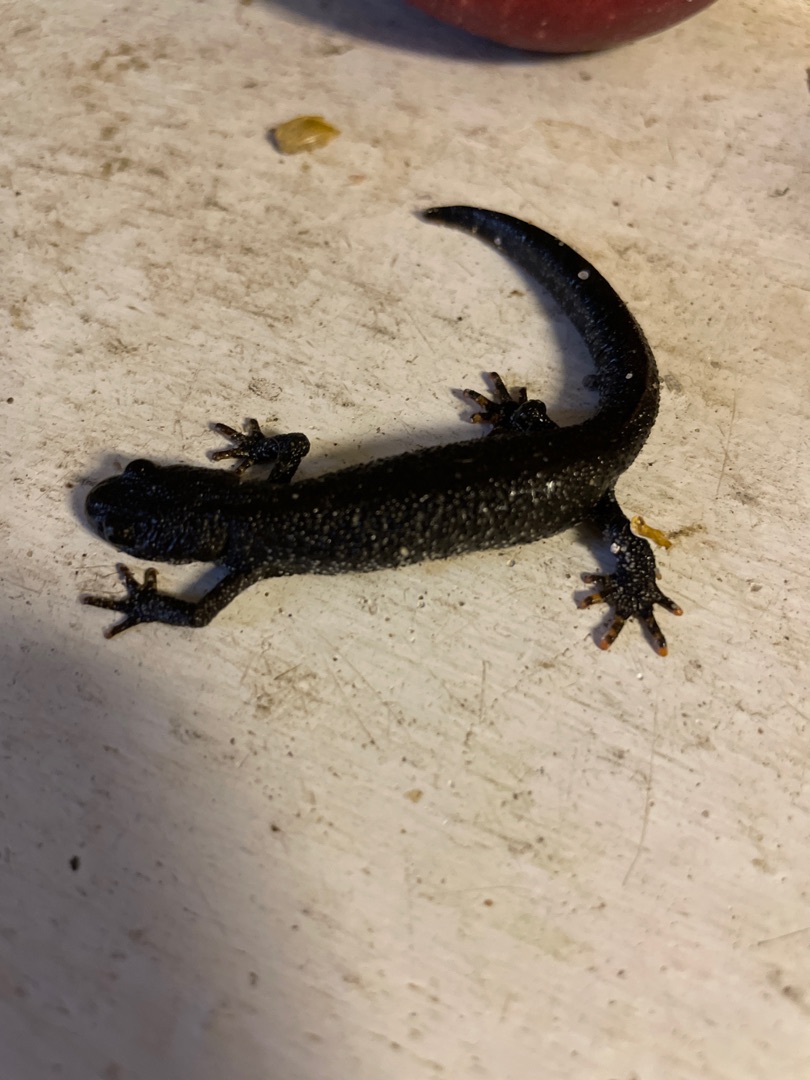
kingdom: Animalia
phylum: Chordata
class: Amphibia
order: Caudata
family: Salamandridae
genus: Triturus
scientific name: Triturus cristatus
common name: Stor vandsalamander
